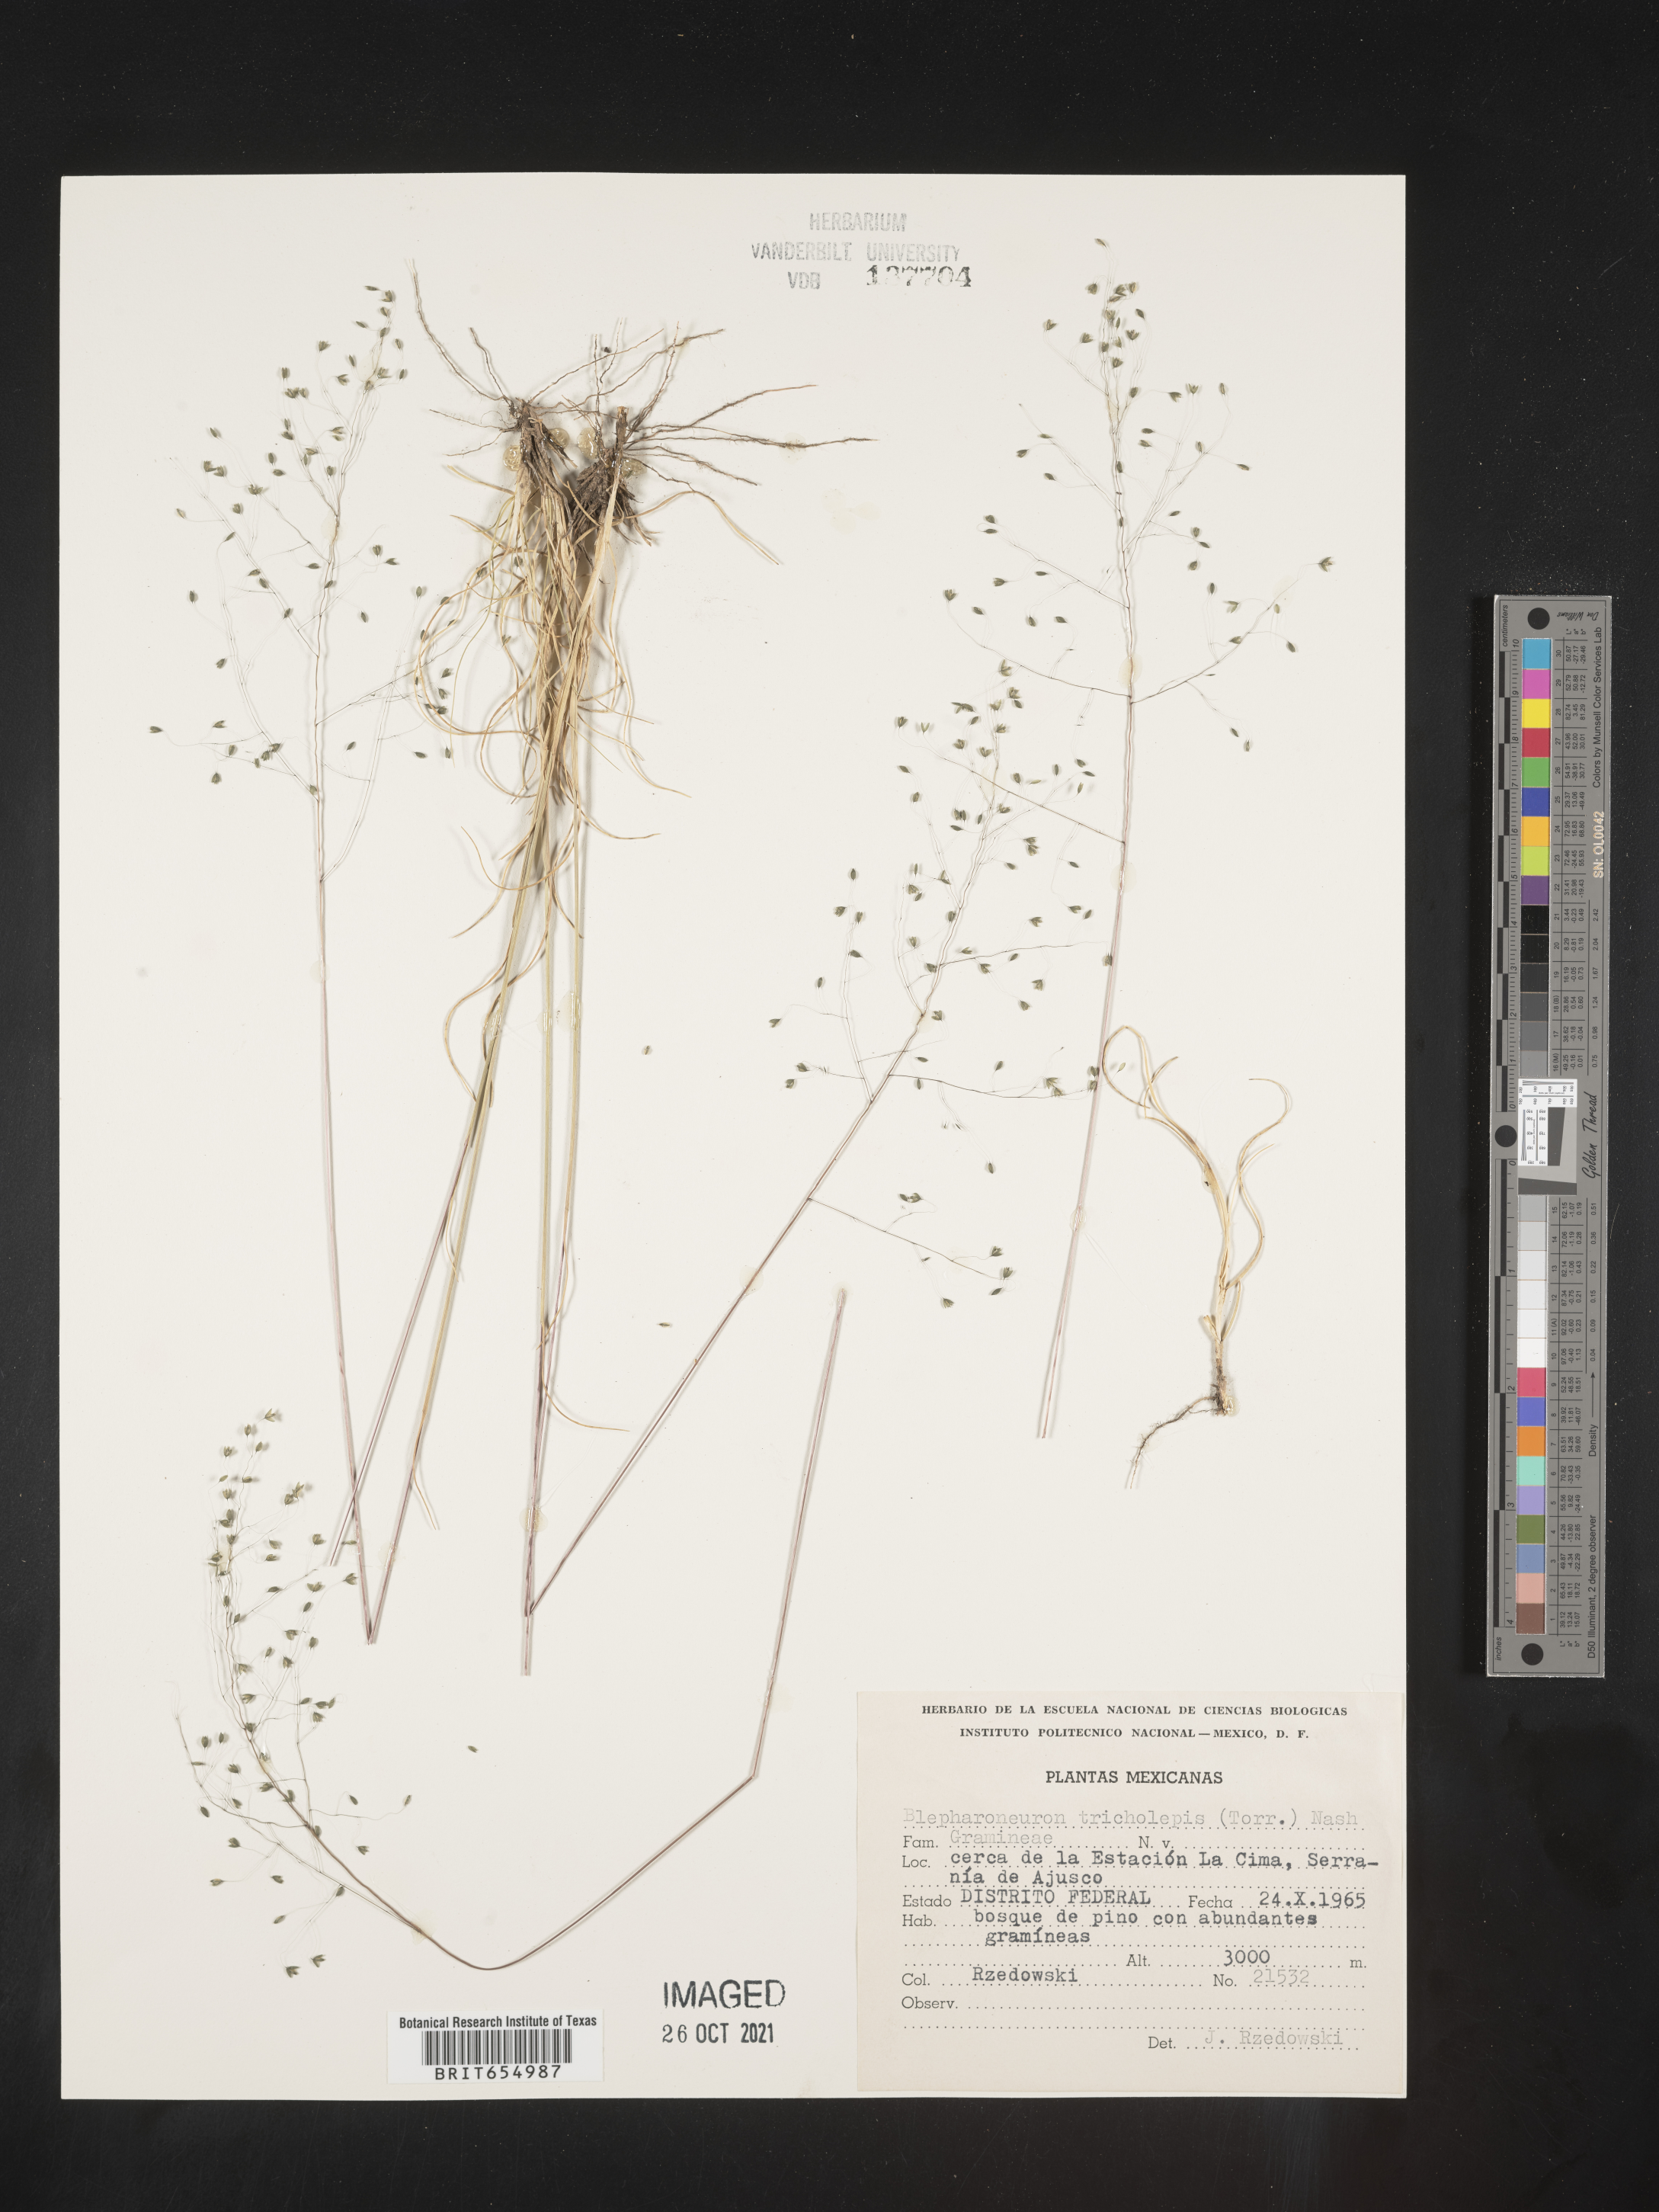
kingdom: Plantae
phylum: Tracheophyta
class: Liliopsida
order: Poales
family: Poaceae
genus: Blepharoneuron
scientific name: Blepharoneuron
